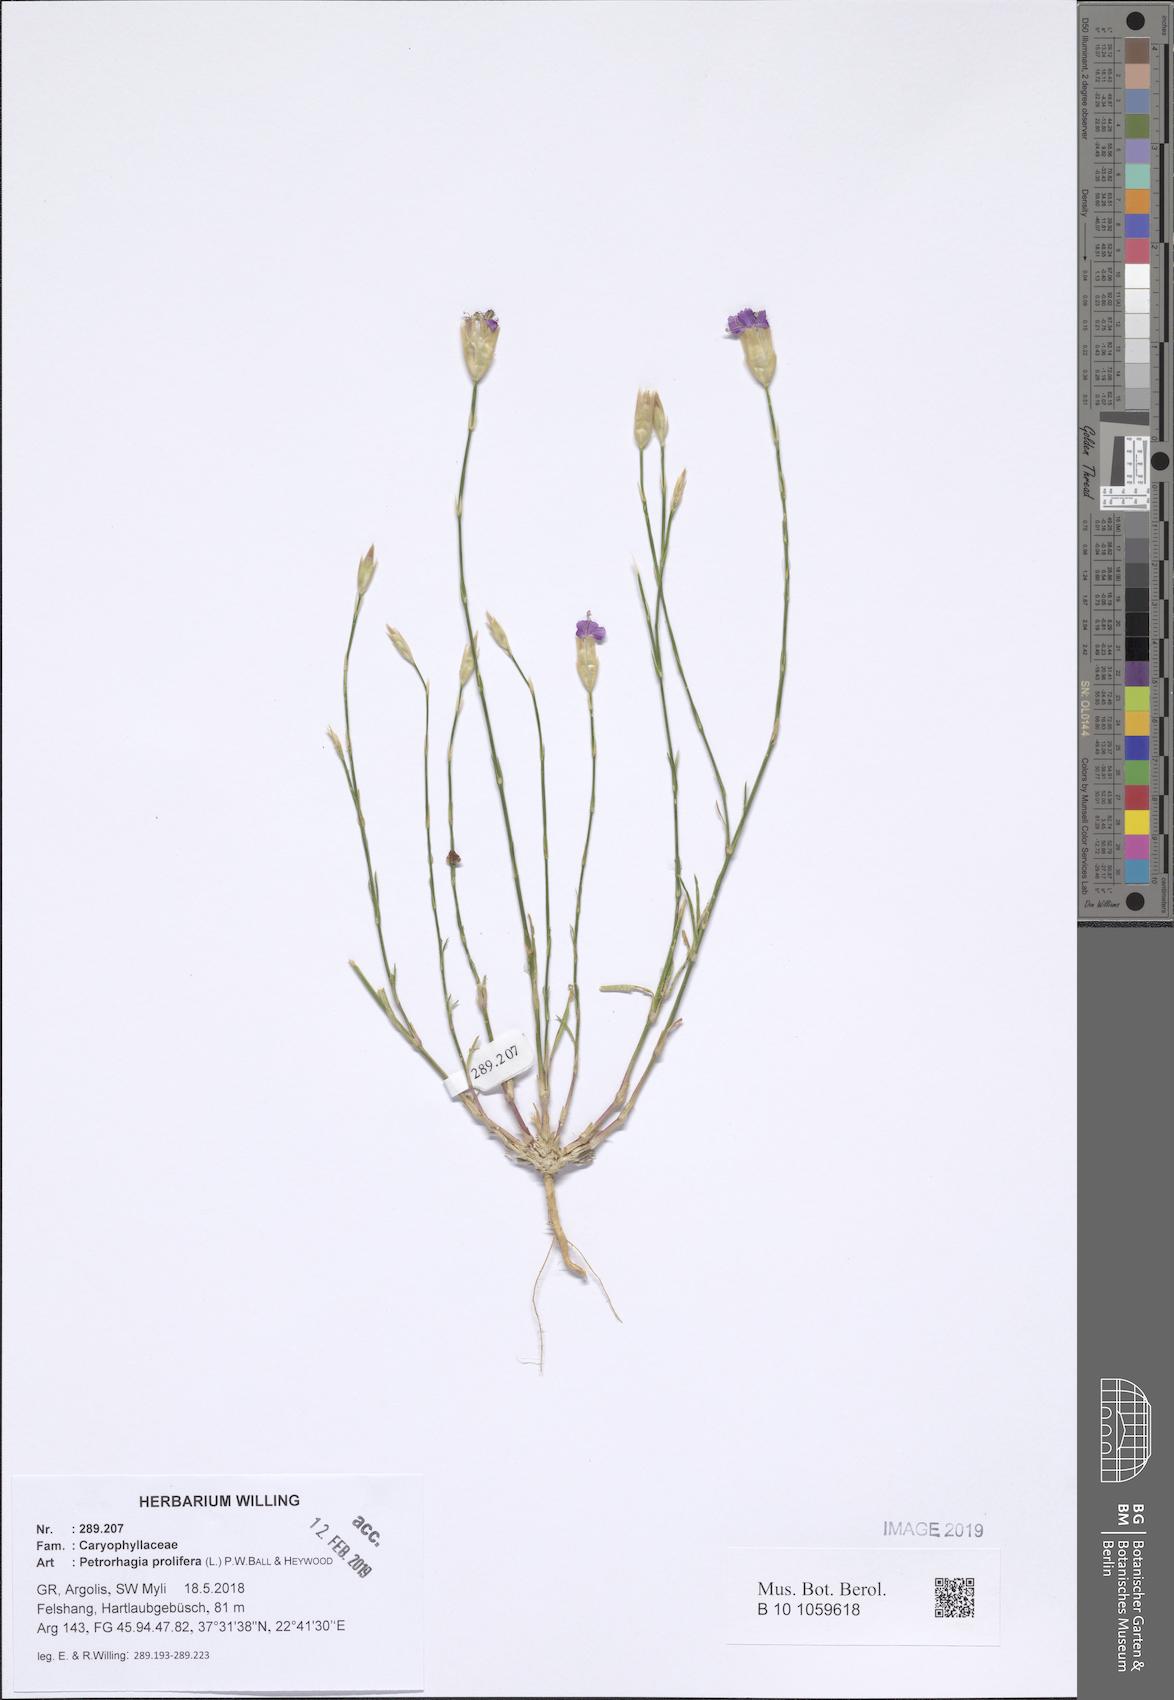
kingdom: Plantae
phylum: Tracheophyta
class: Magnoliopsida
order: Caryophyllales
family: Caryophyllaceae
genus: Petrorhagia
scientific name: Petrorhagia prolifera
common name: Proliferous pink
